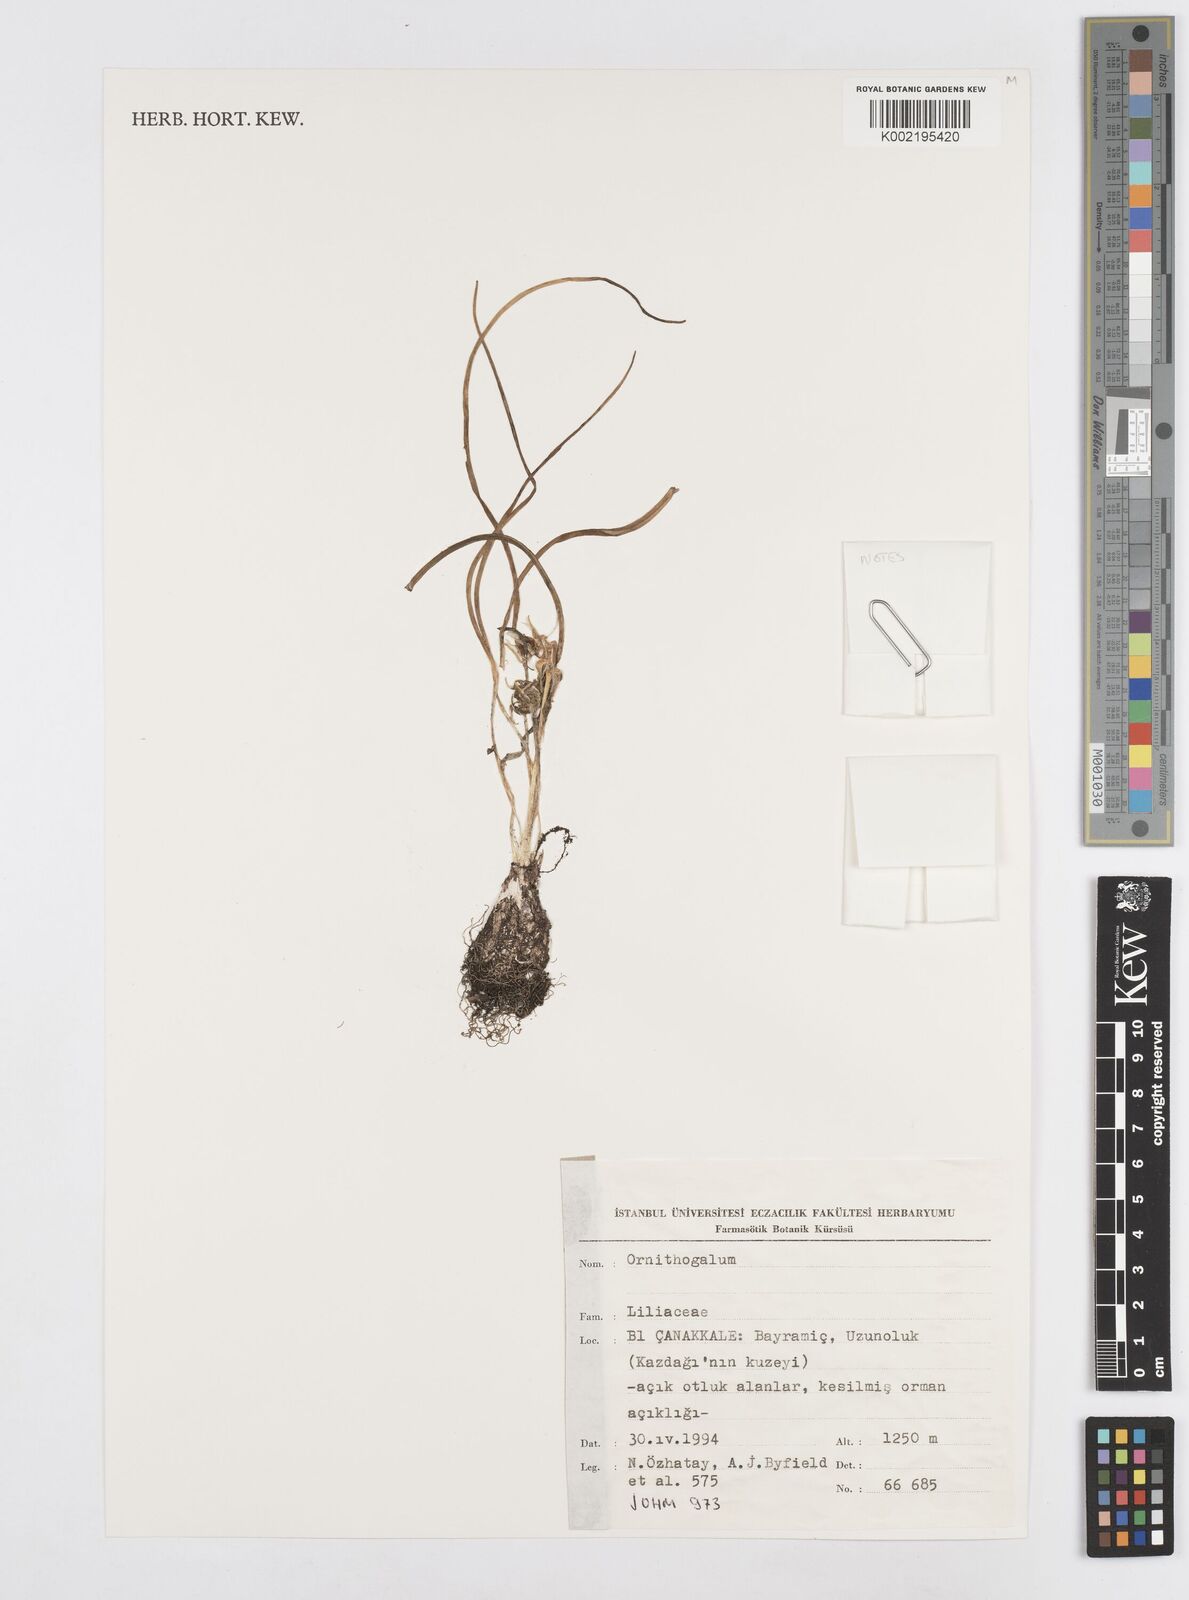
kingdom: Plantae
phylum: Tracheophyta
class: Liliopsida
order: Asparagales
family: Asparagaceae
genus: Ornithogalum
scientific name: Ornithogalum
